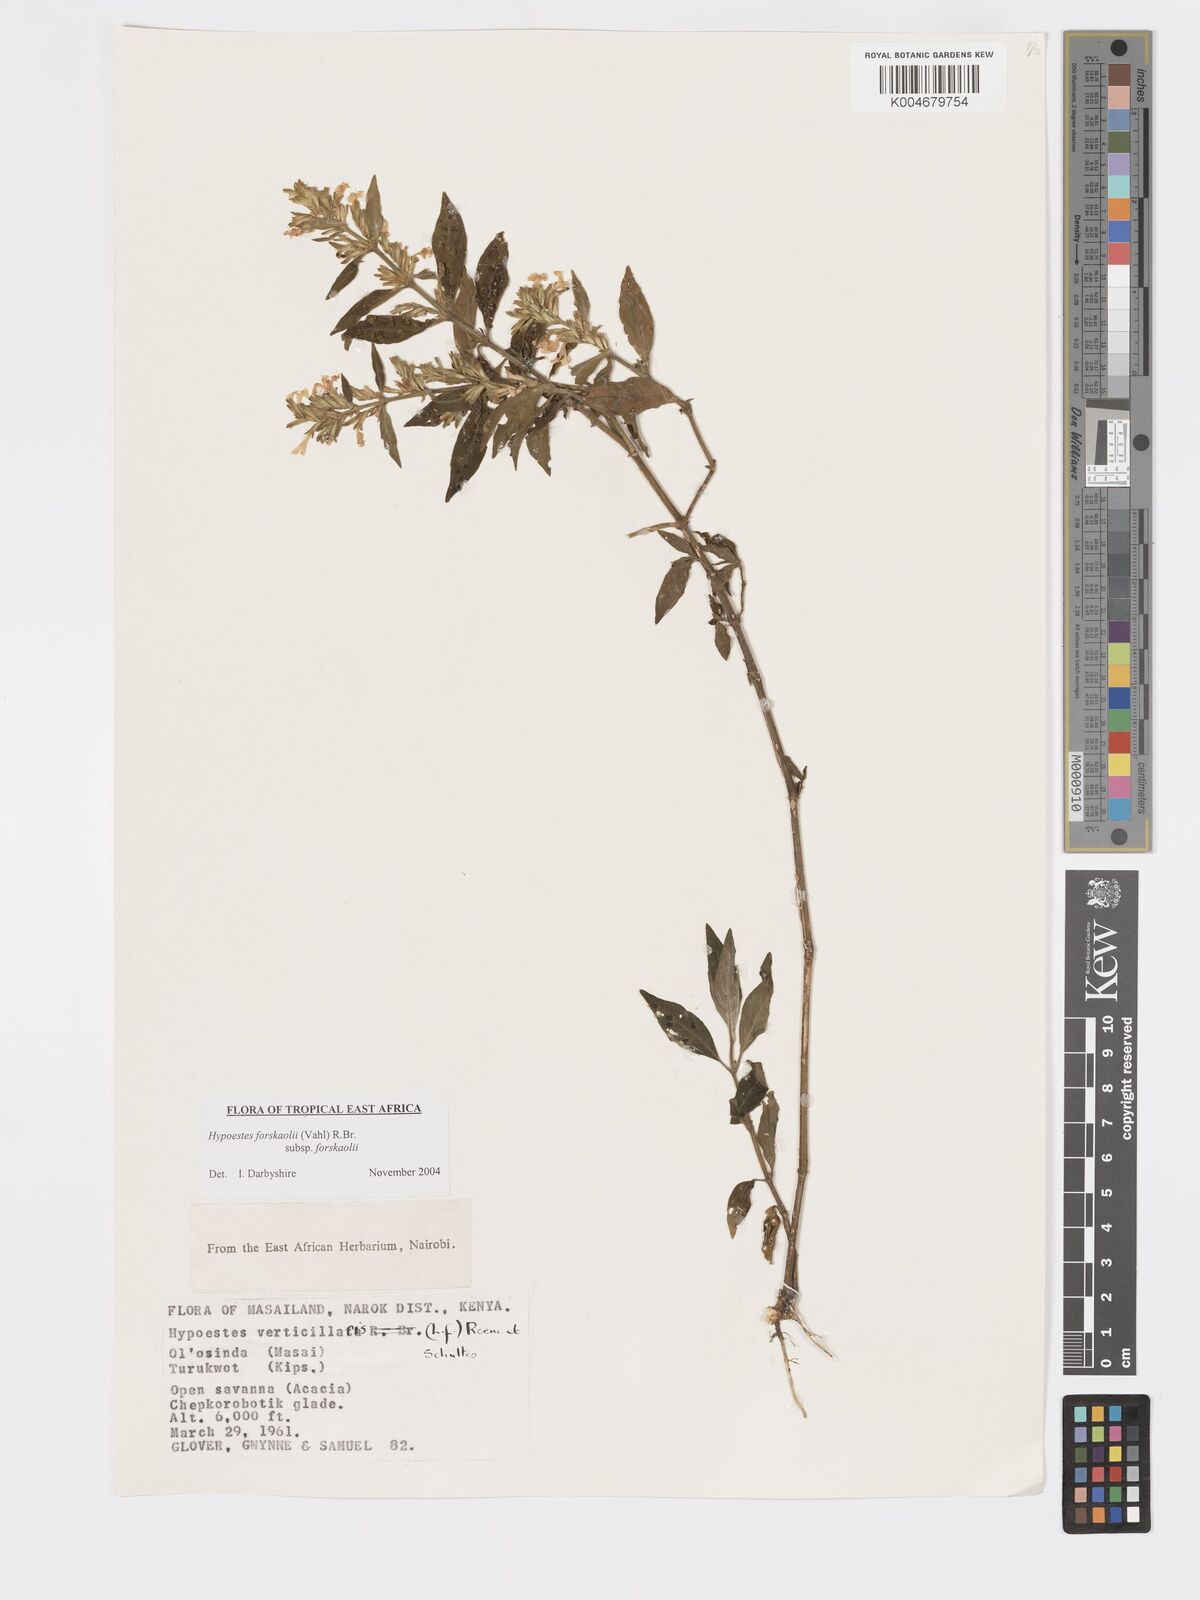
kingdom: Plantae
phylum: Tracheophyta
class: Magnoliopsida
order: Lamiales
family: Acanthaceae
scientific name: Acanthaceae
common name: Acanthaceae
